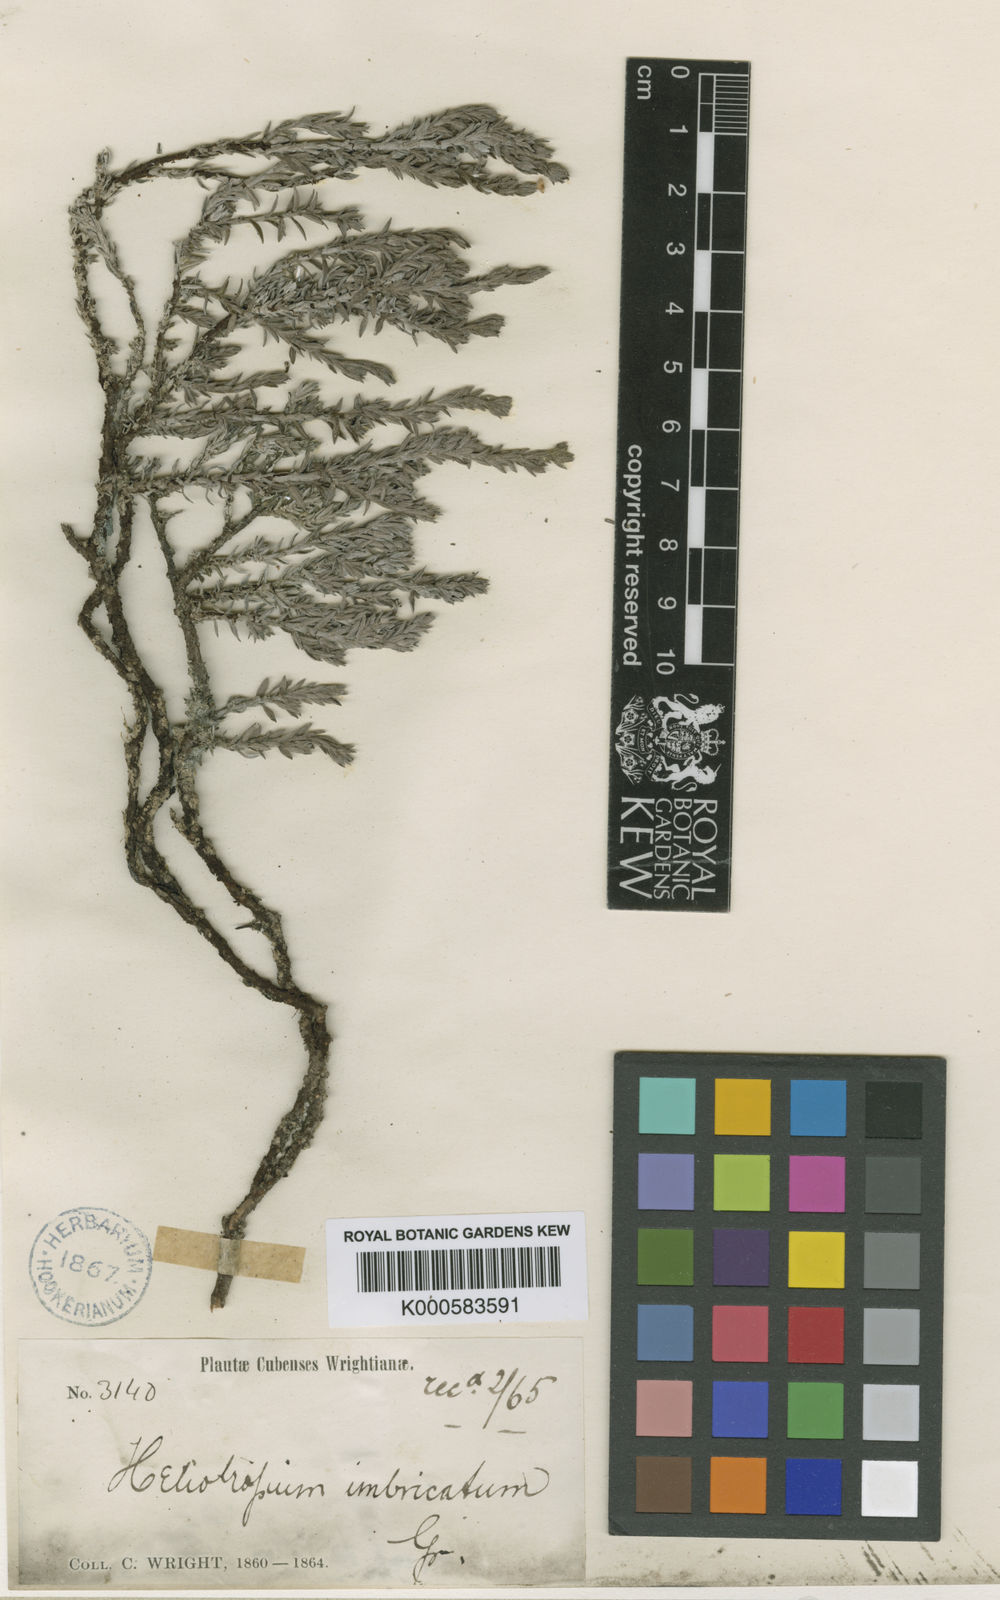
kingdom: Plantae
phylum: Tracheophyta
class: Magnoliopsida
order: Boraginales
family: Heliotropiaceae
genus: Heliotropium
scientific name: Heliotropium
